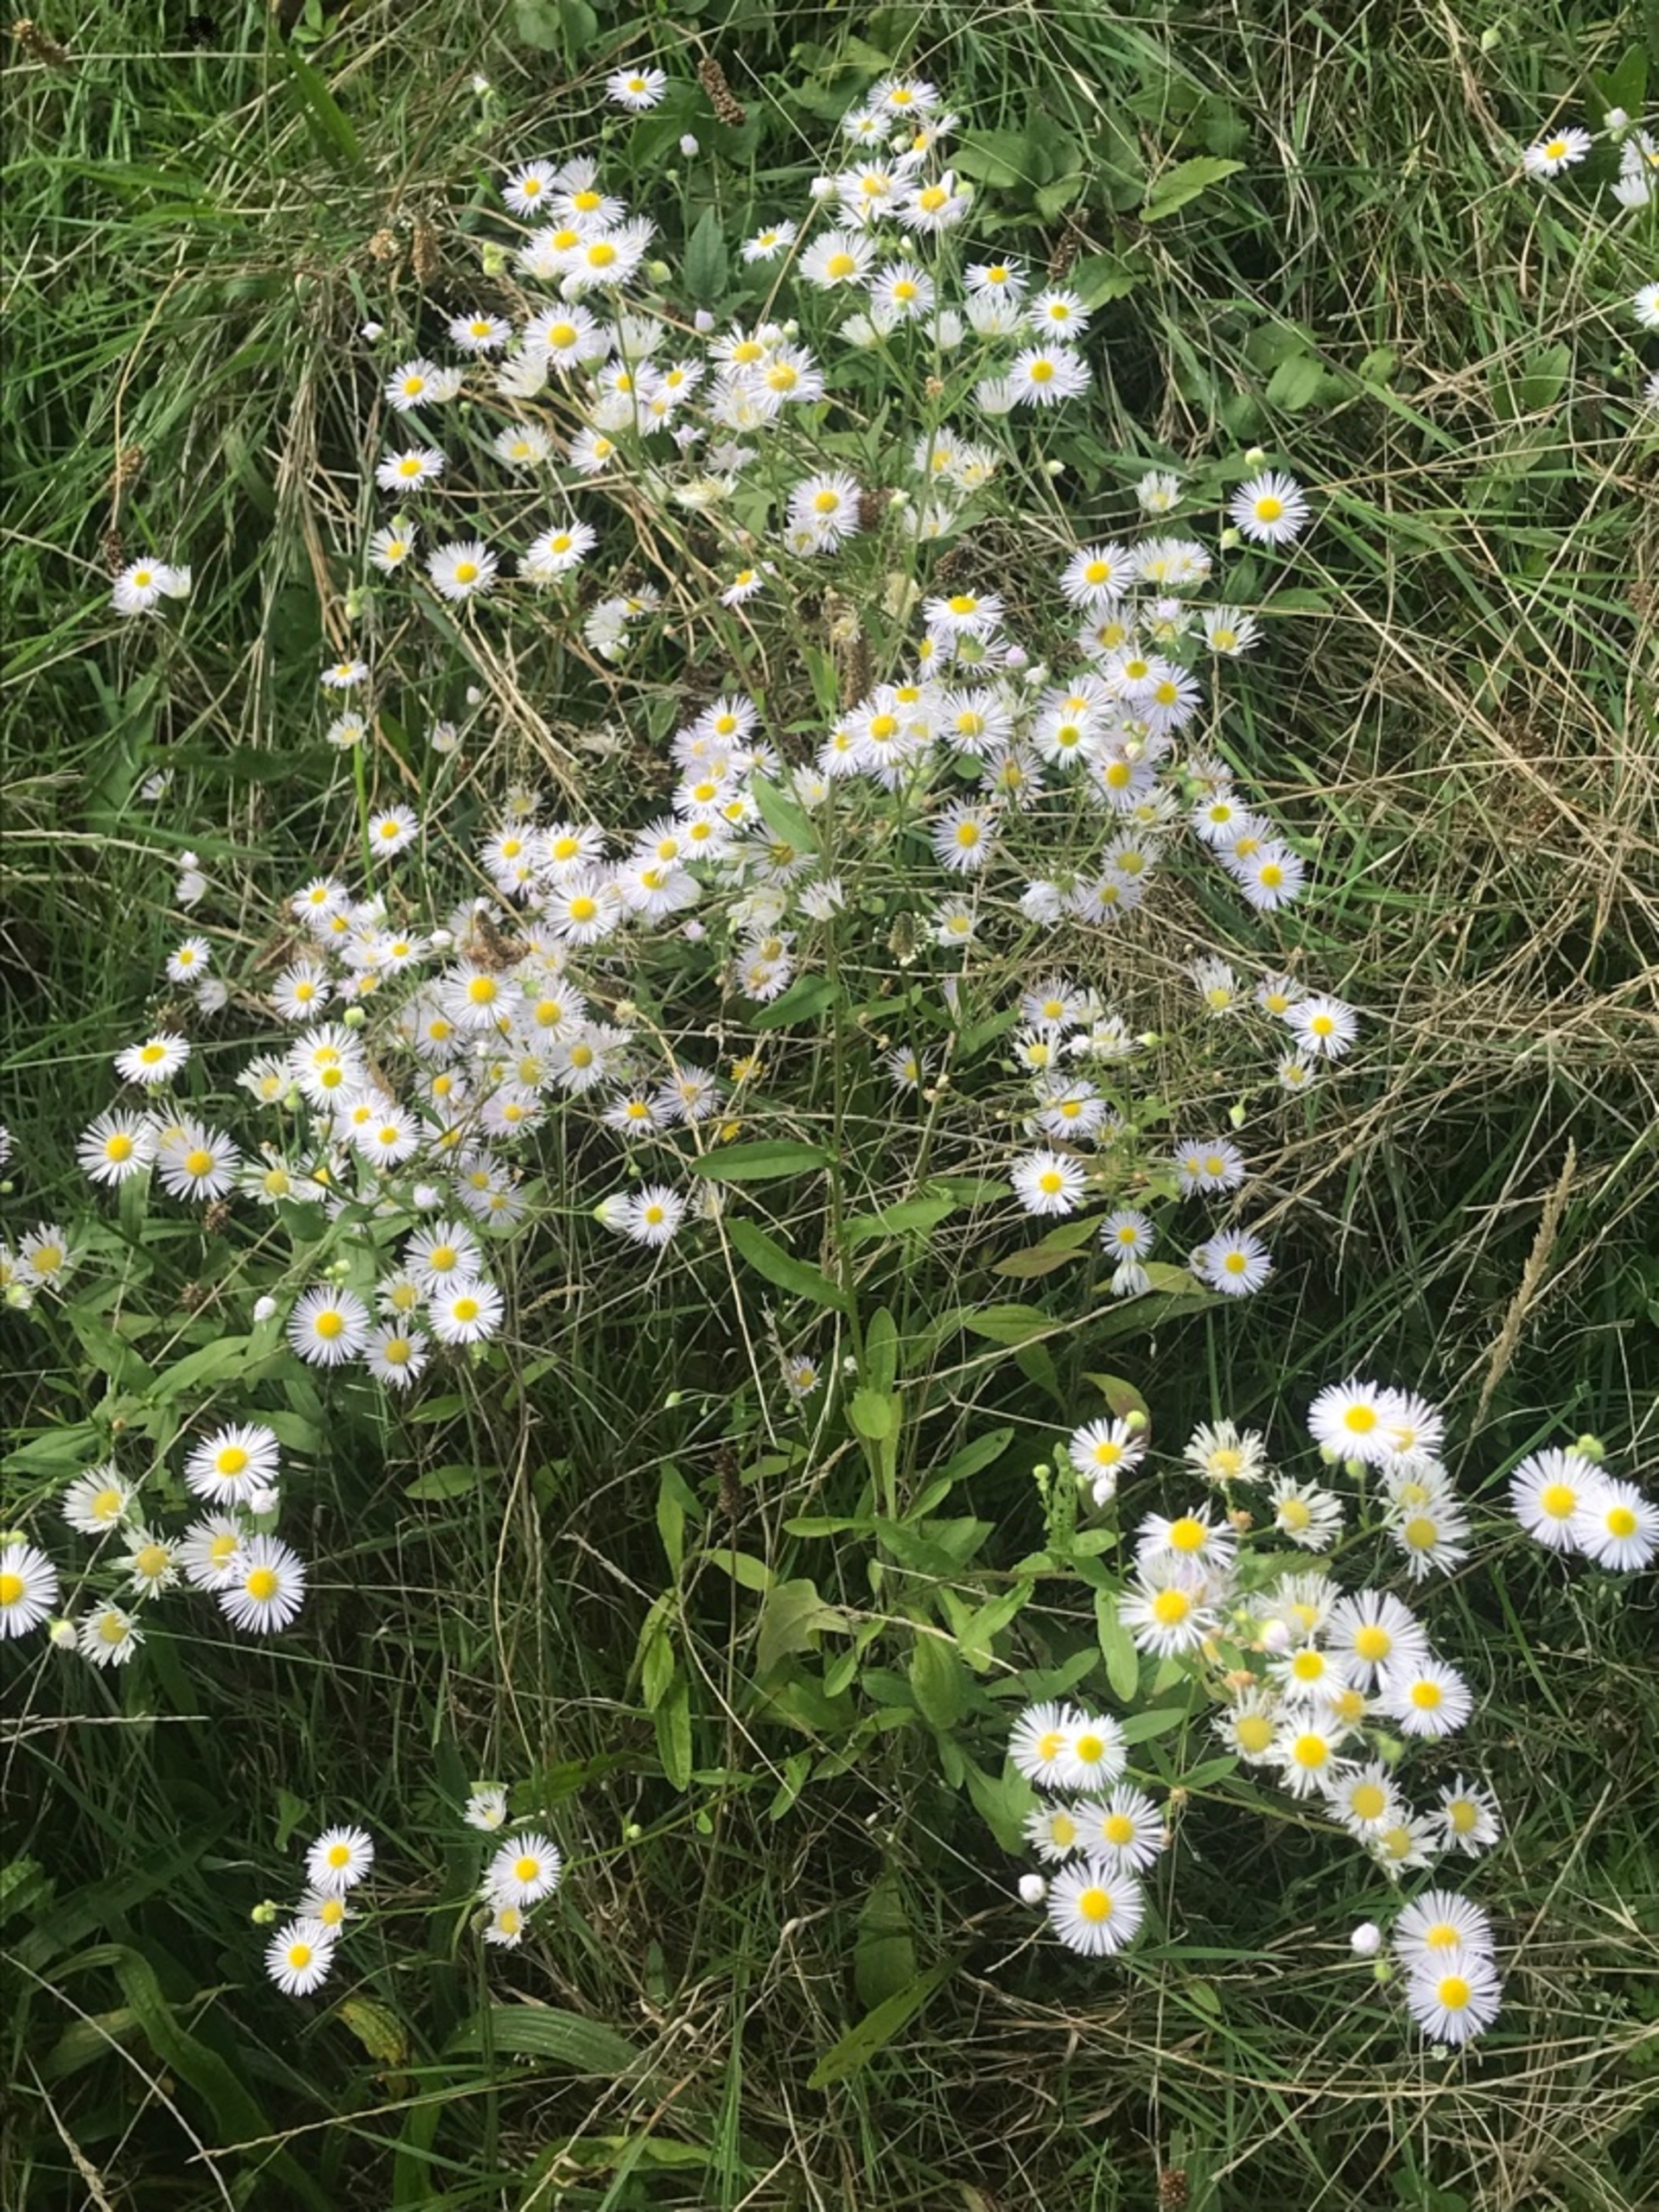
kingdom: Plantae
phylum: Tracheophyta
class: Magnoliopsida
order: Asterales
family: Asteraceae
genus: Erigeron
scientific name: Erigeron annuus
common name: Smalstråle
